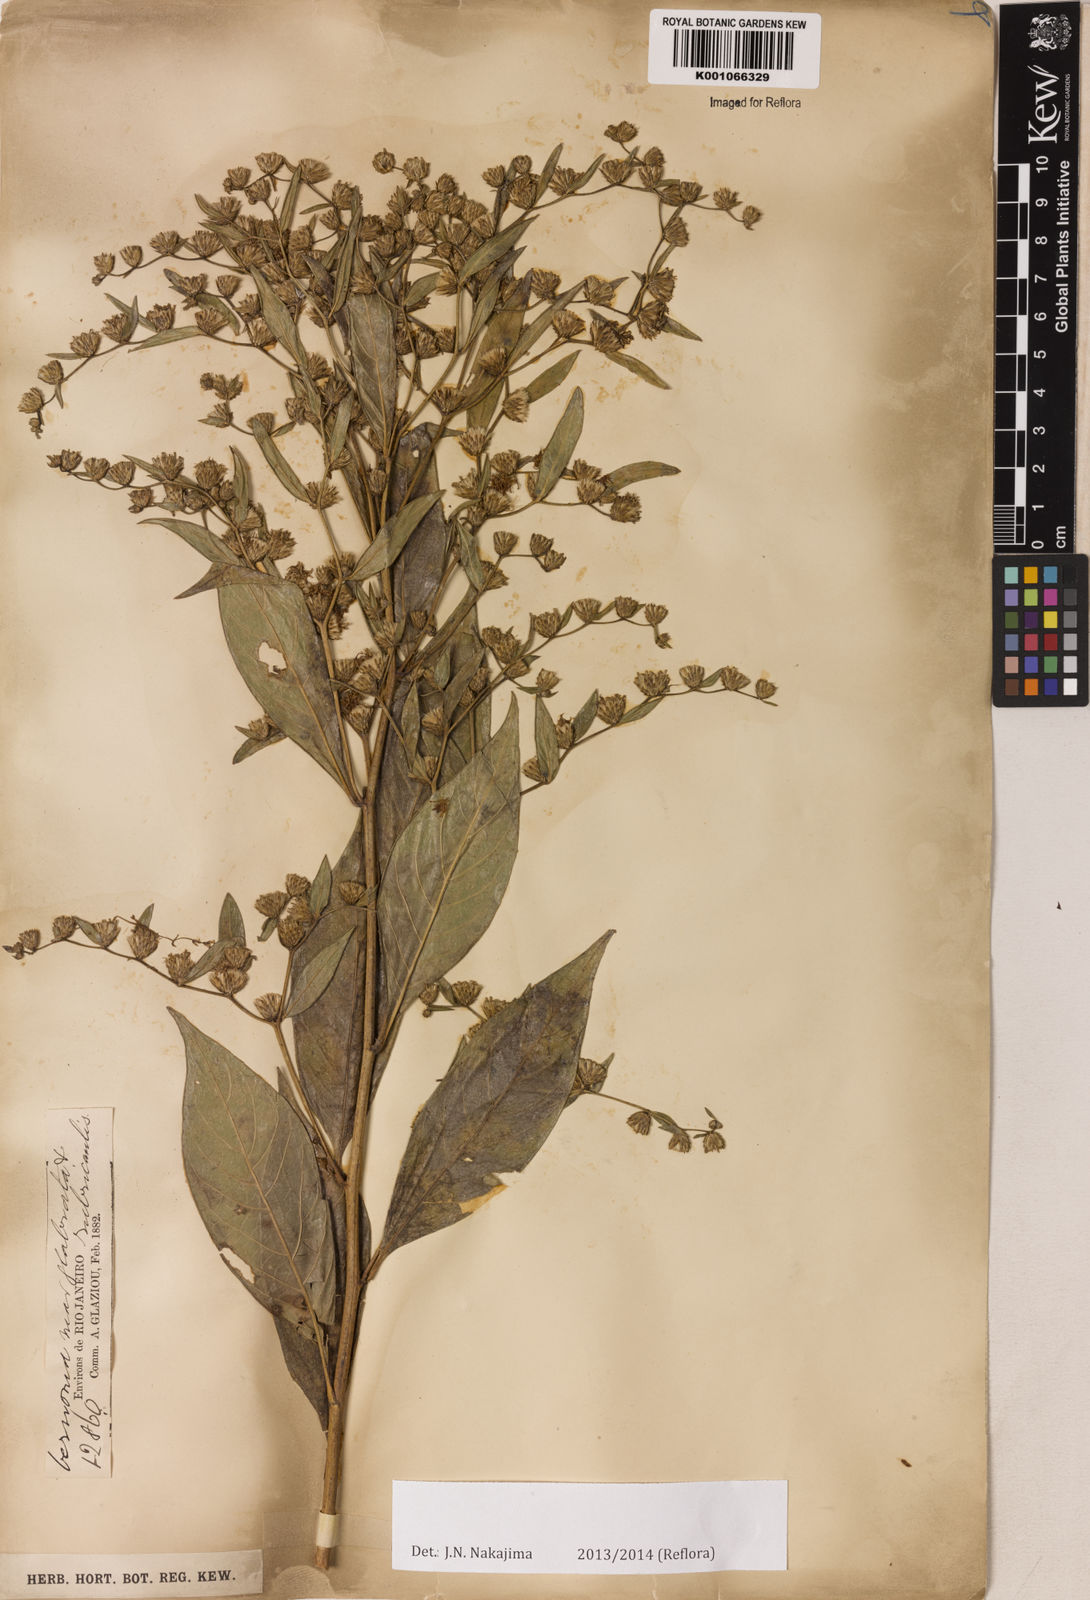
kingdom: Plantae
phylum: Tracheophyta
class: Magnoliopsida
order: Asterales
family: Asteraceae
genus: Vernonia
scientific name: Vernonia
